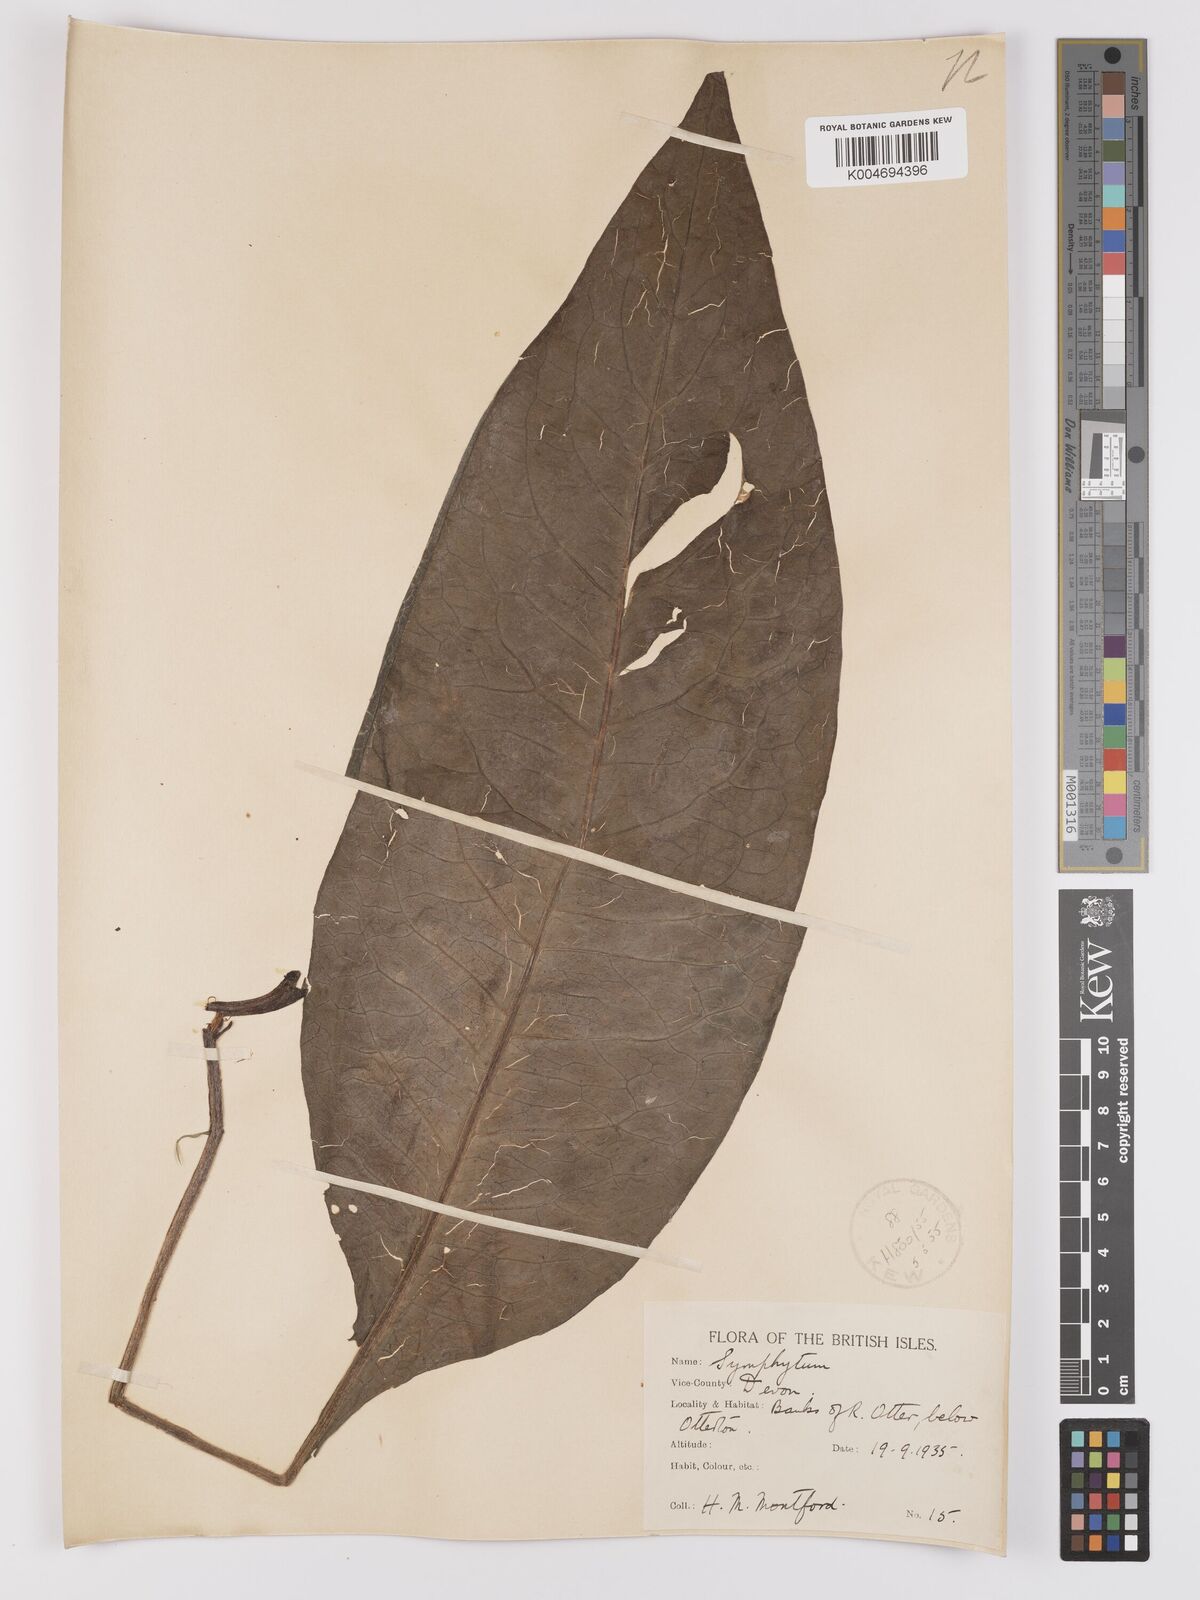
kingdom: Plantae
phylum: Tracheophyta
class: Magnoliopsida
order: Boraginales
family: Boraginaceae
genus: Symphytum
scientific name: Symphytum officinale
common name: Common comfrey
